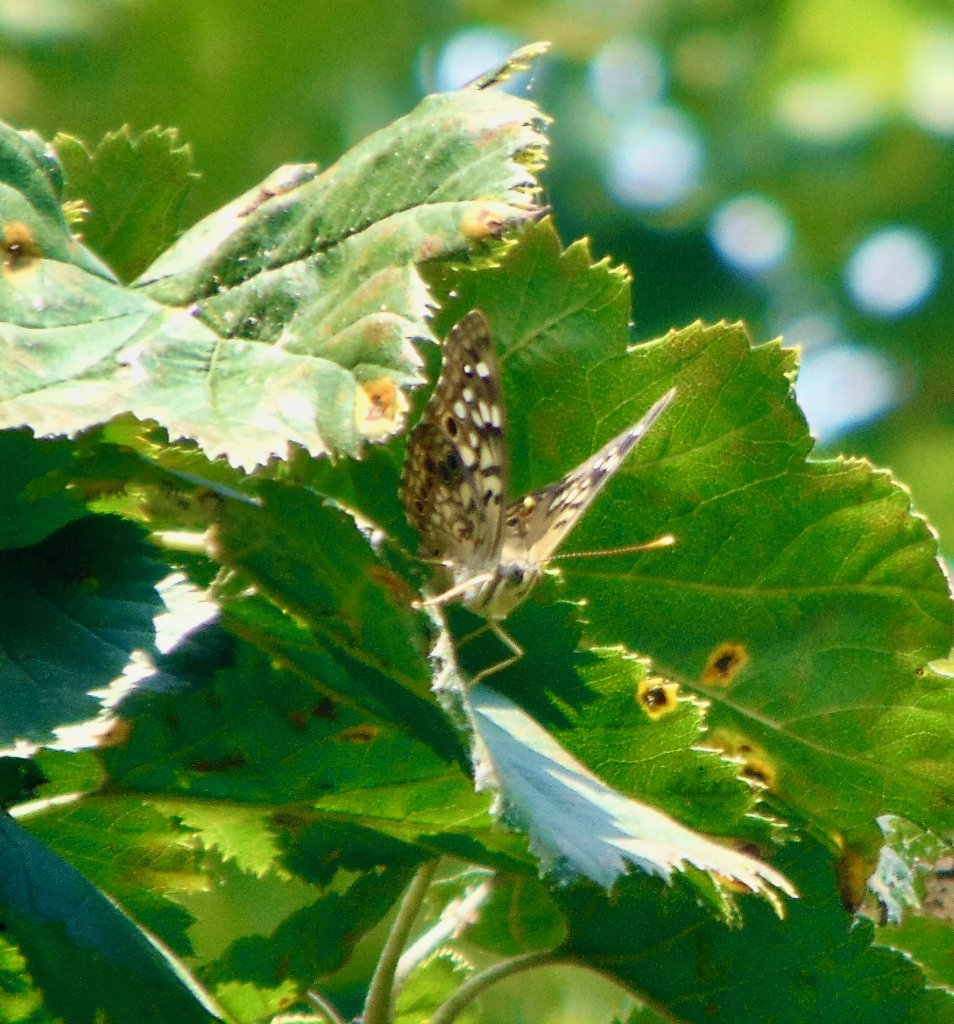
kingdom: Animalia
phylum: Arthropoda
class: Insecta
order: Lepidoptera
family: Nymphalidae
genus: Asterocampa
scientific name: Asterocampa celtis
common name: Hackberry Emperor
